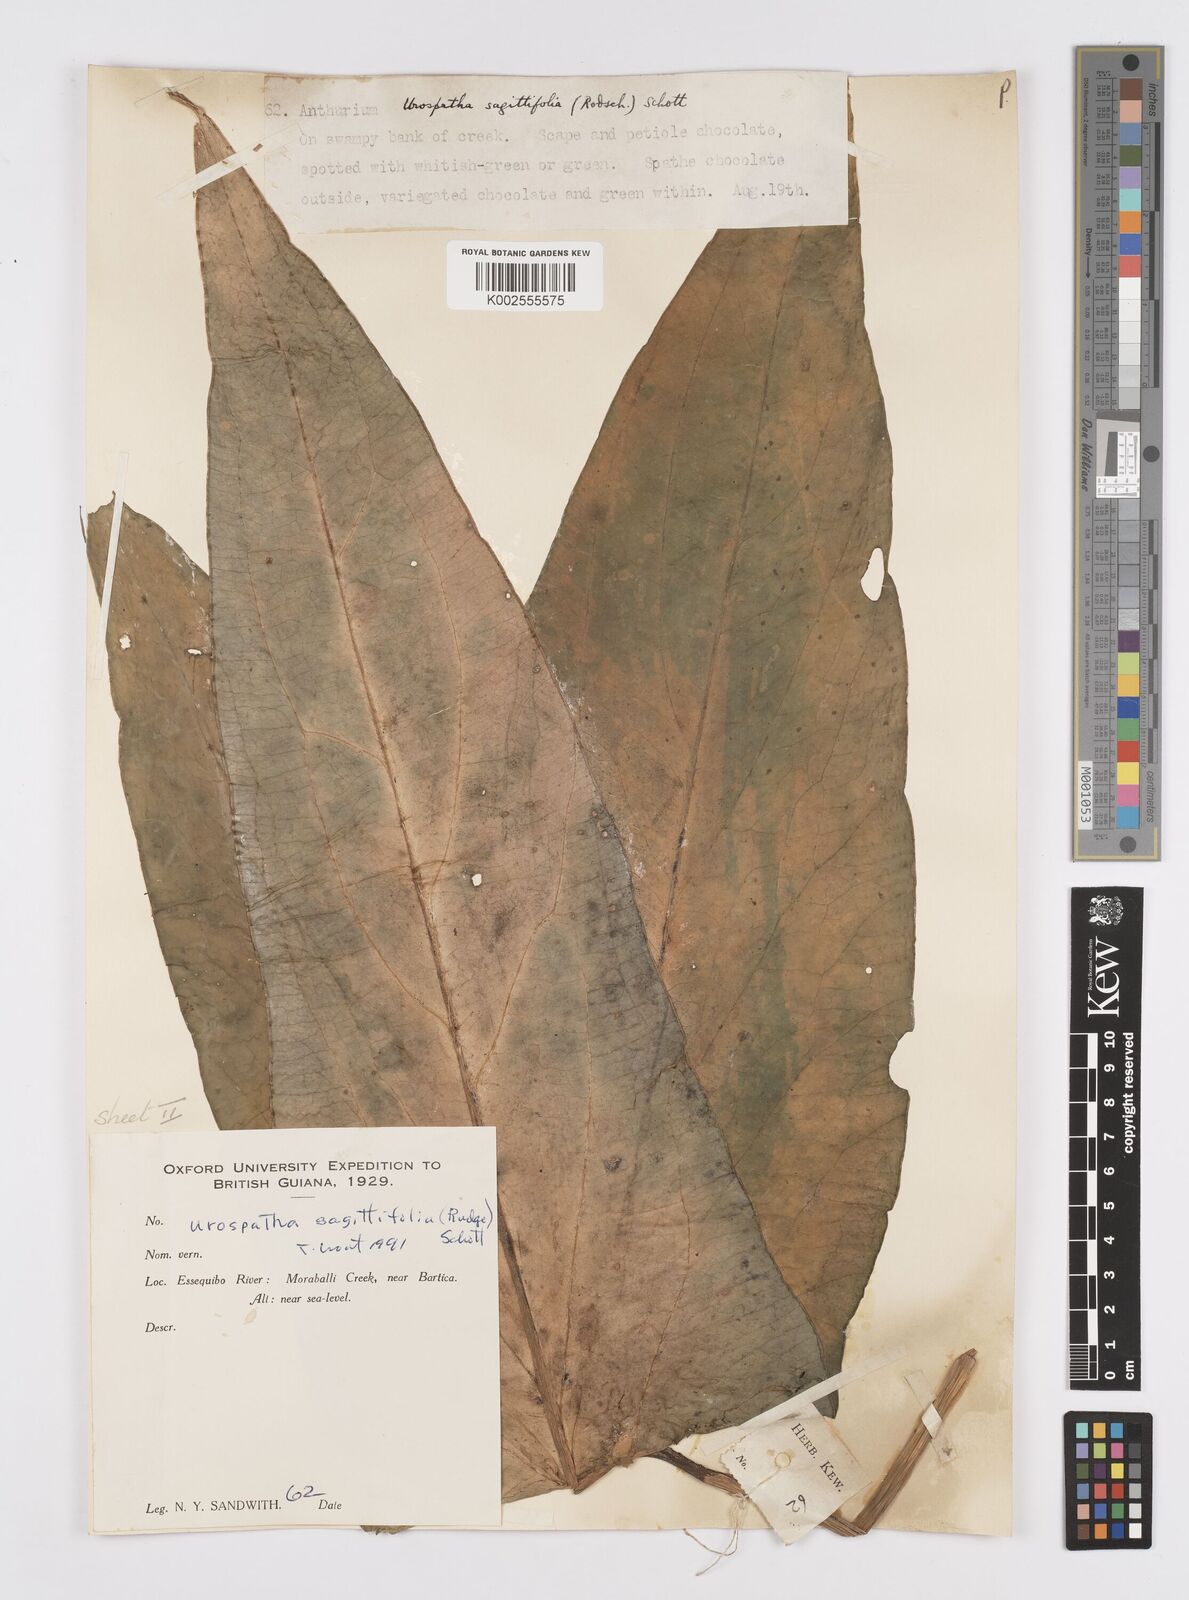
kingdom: Plantae
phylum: Tracheophyta
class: Liliopsida
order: Alismatales
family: Araceae
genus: Urospatha
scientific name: Urospatha sagittifolia
